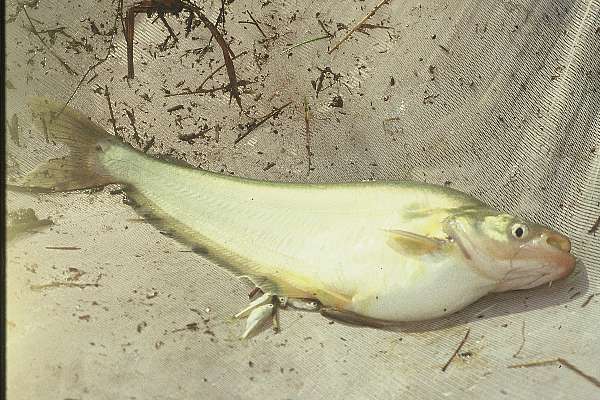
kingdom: Animalia
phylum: Chordata
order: Siluriformes
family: Schilbeidae
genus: Schilbe
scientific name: Schilbe intermedius
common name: Silver catfish
